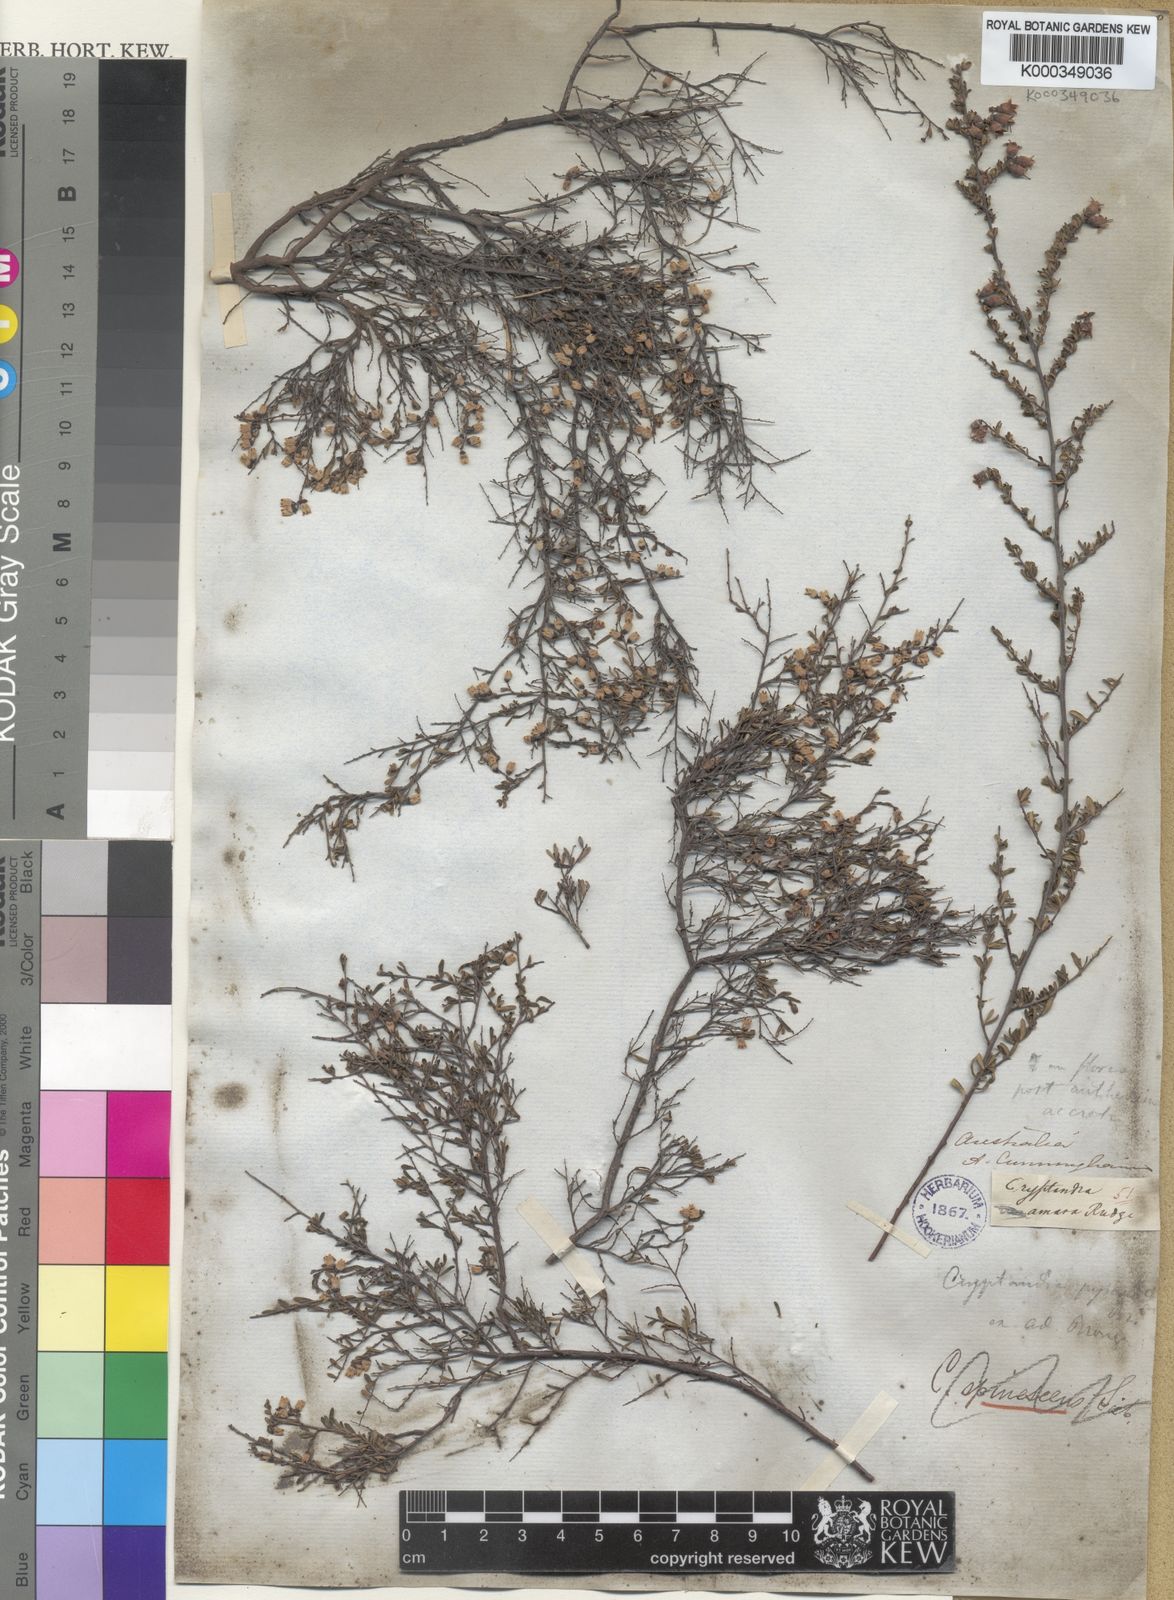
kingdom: Plantae
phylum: Tracheophyta
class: Magnoliopsida
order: Rosales
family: Rhamnaceae
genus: Cryptandra
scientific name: Cryptandra amara
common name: Bitter cryptandra
